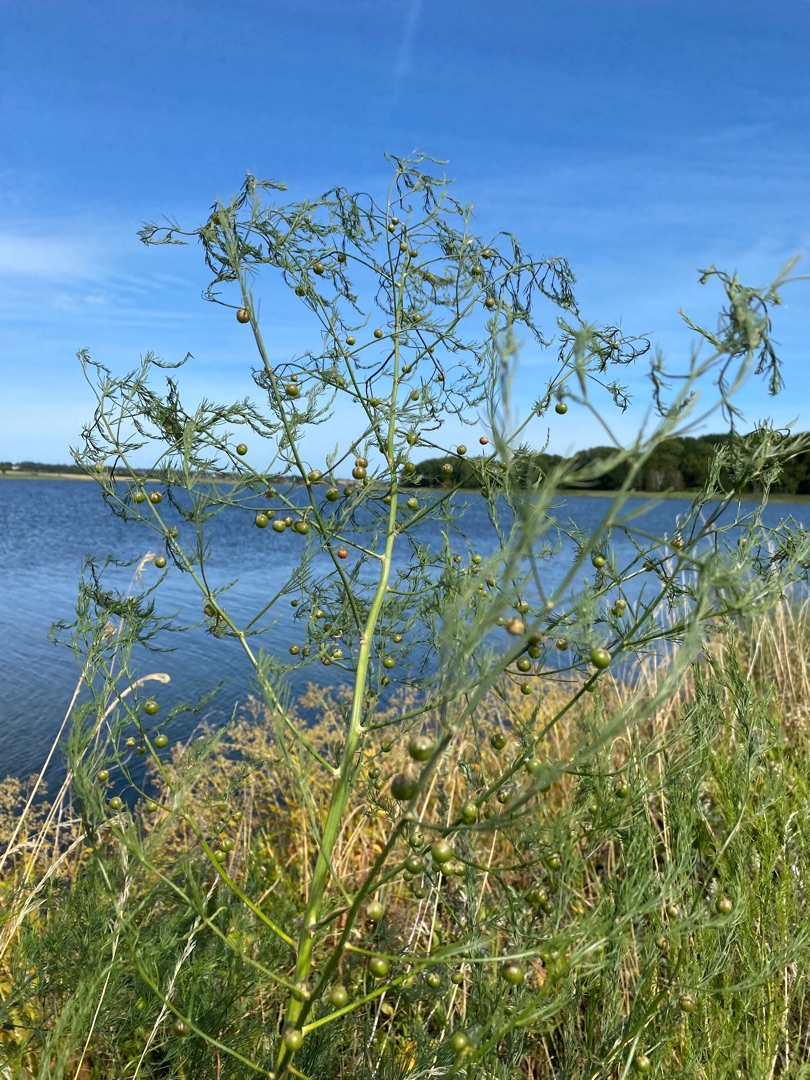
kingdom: Plantae
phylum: Tracheophyta
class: Liliopsida
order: Asparagales
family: Asparagaceae
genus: Asparagus
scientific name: Asparagus officinalis
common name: Asparges
